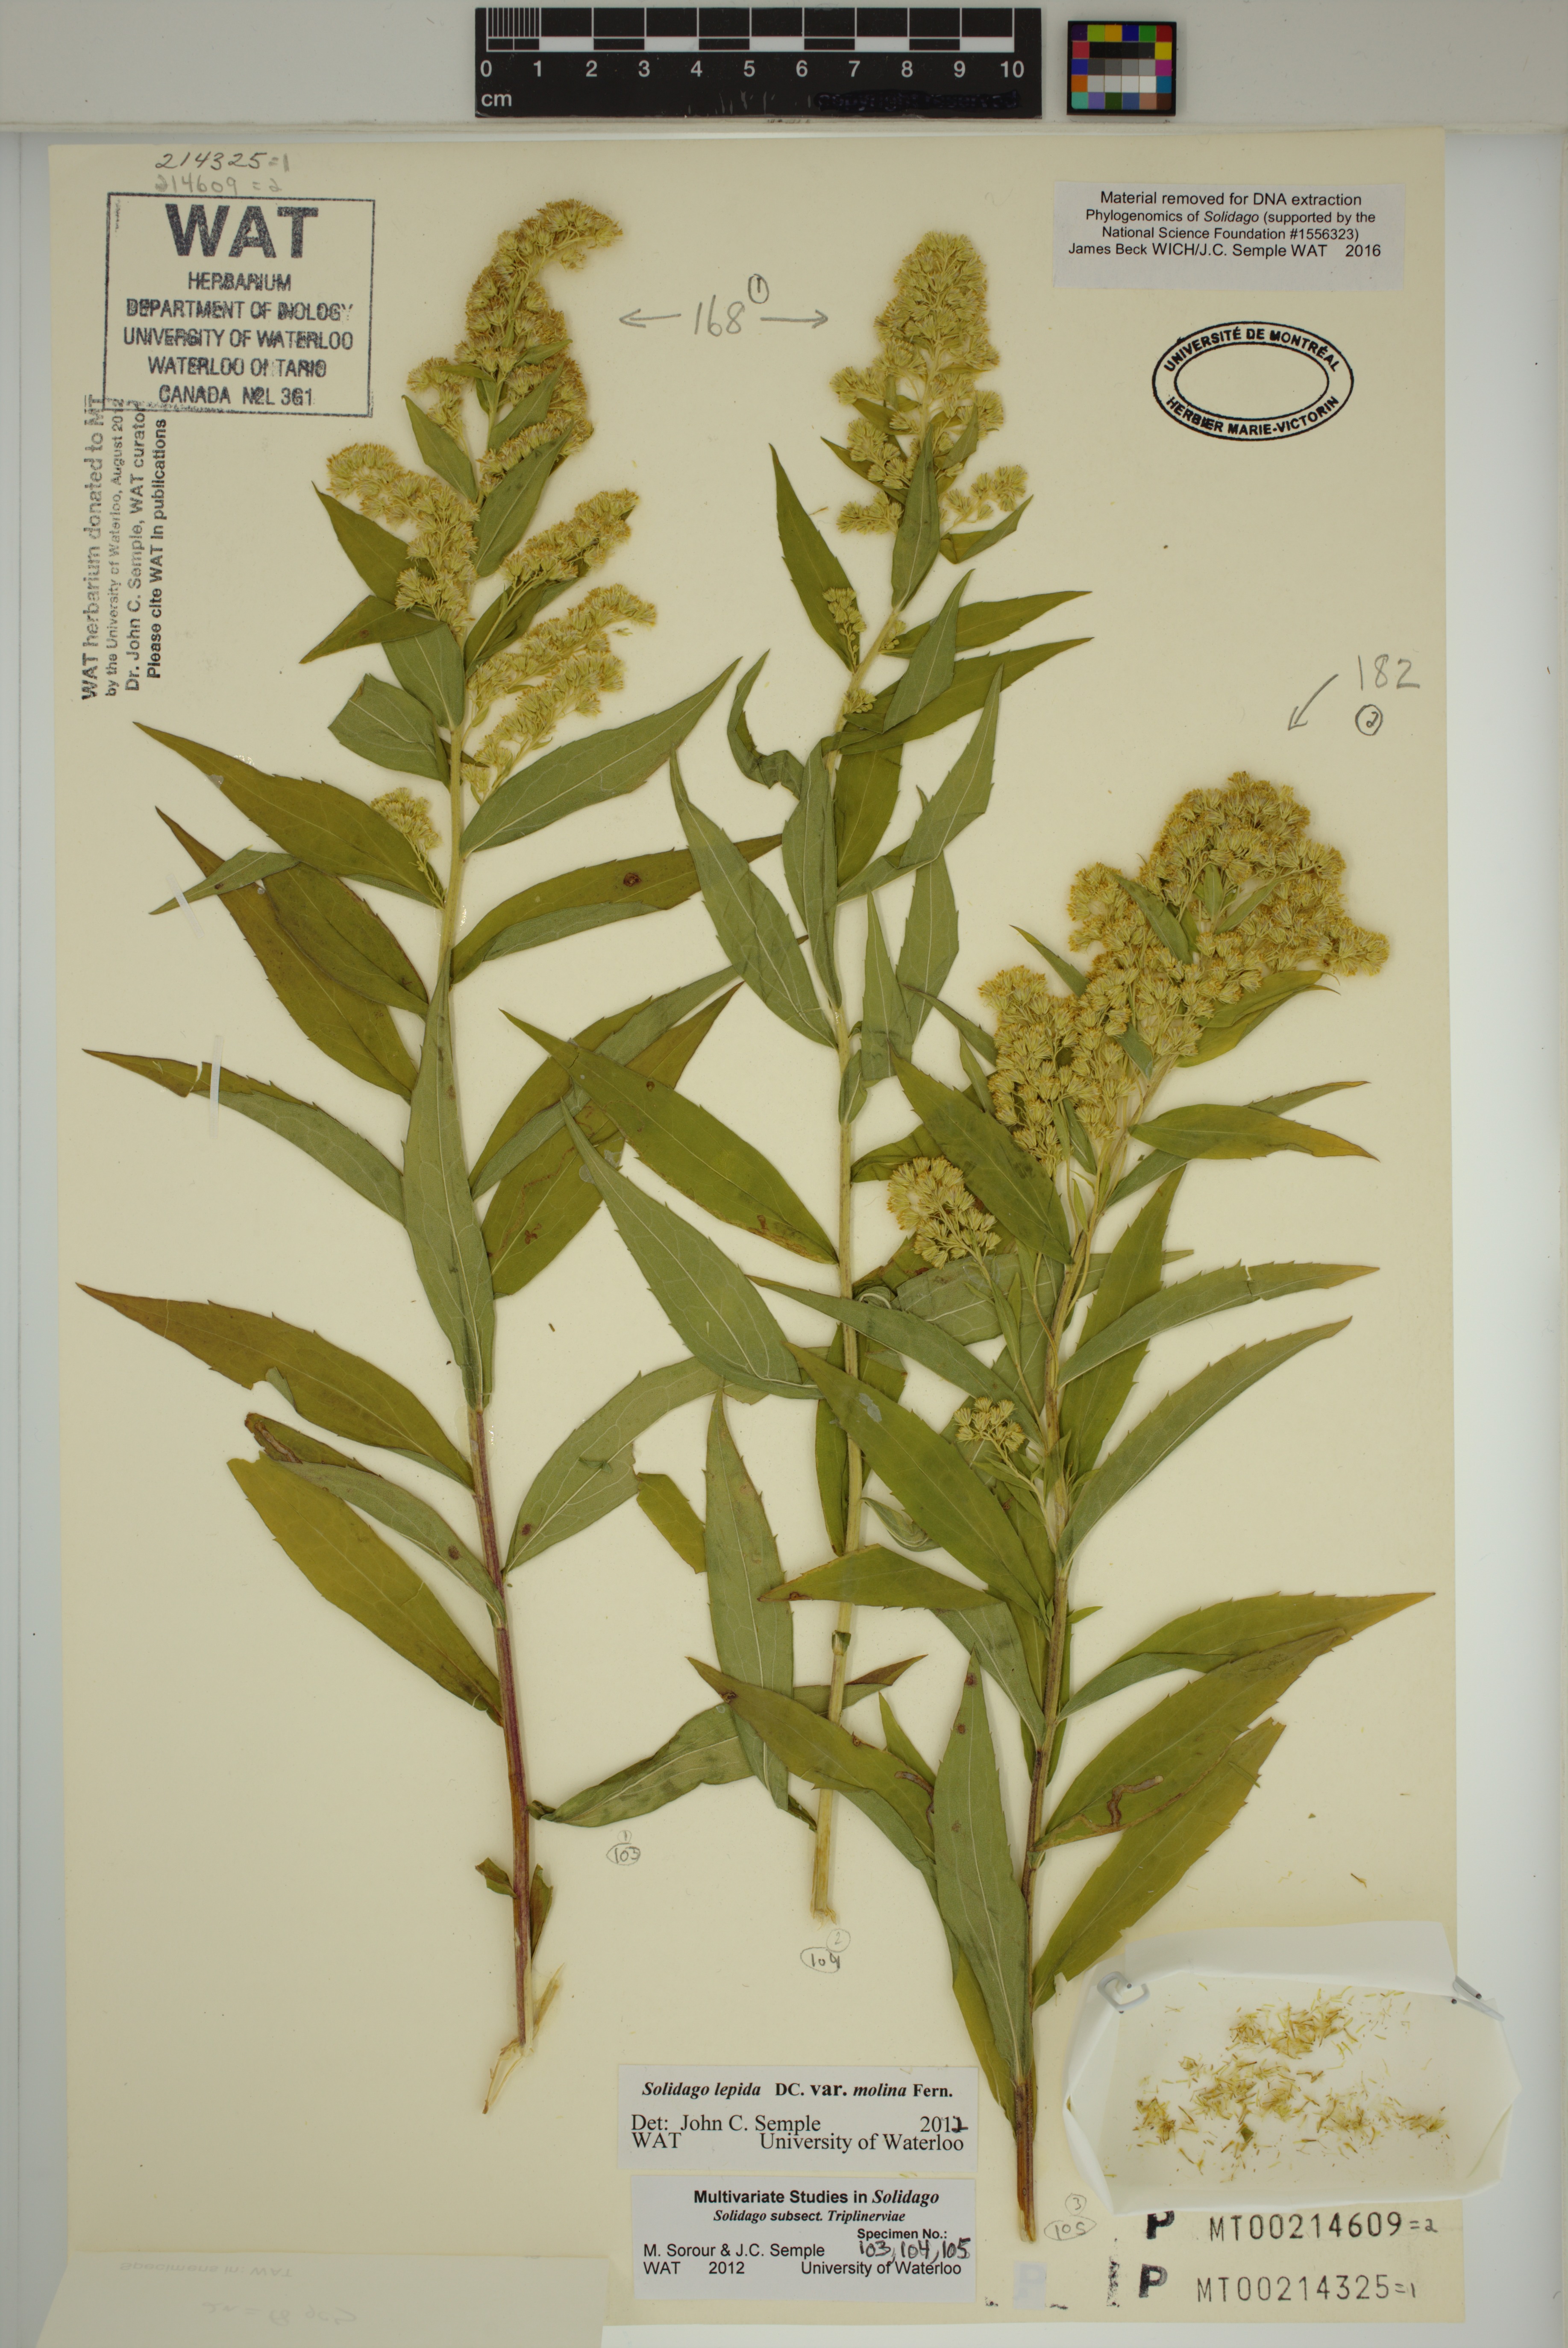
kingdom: Plantae
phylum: Tracheophyta
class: Magnoliopsida
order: Asterales
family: Asteraceae
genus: Solidago
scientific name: Solidago fallax
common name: Big-toothed canada goldenrod
